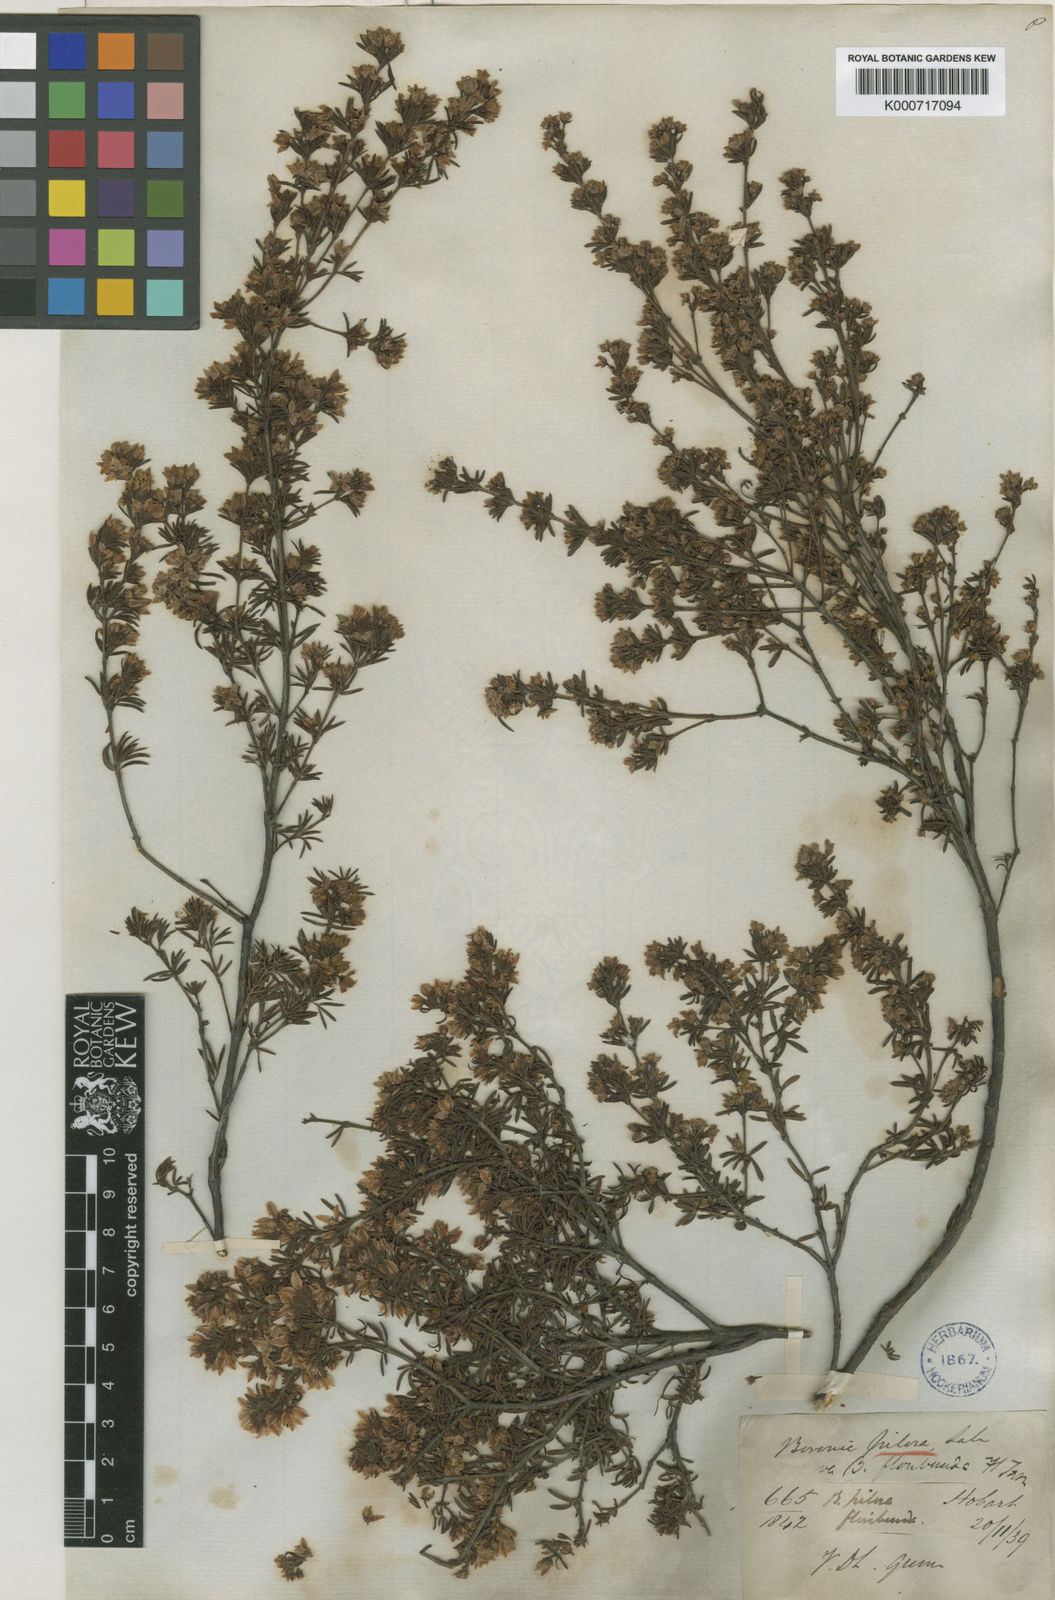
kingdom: Plantae
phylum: Tracheophyta
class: Magnoliopsida
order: Sapindales
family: Rutaceae
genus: Boronia
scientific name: Boronia pilosa
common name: Hairy boronia
